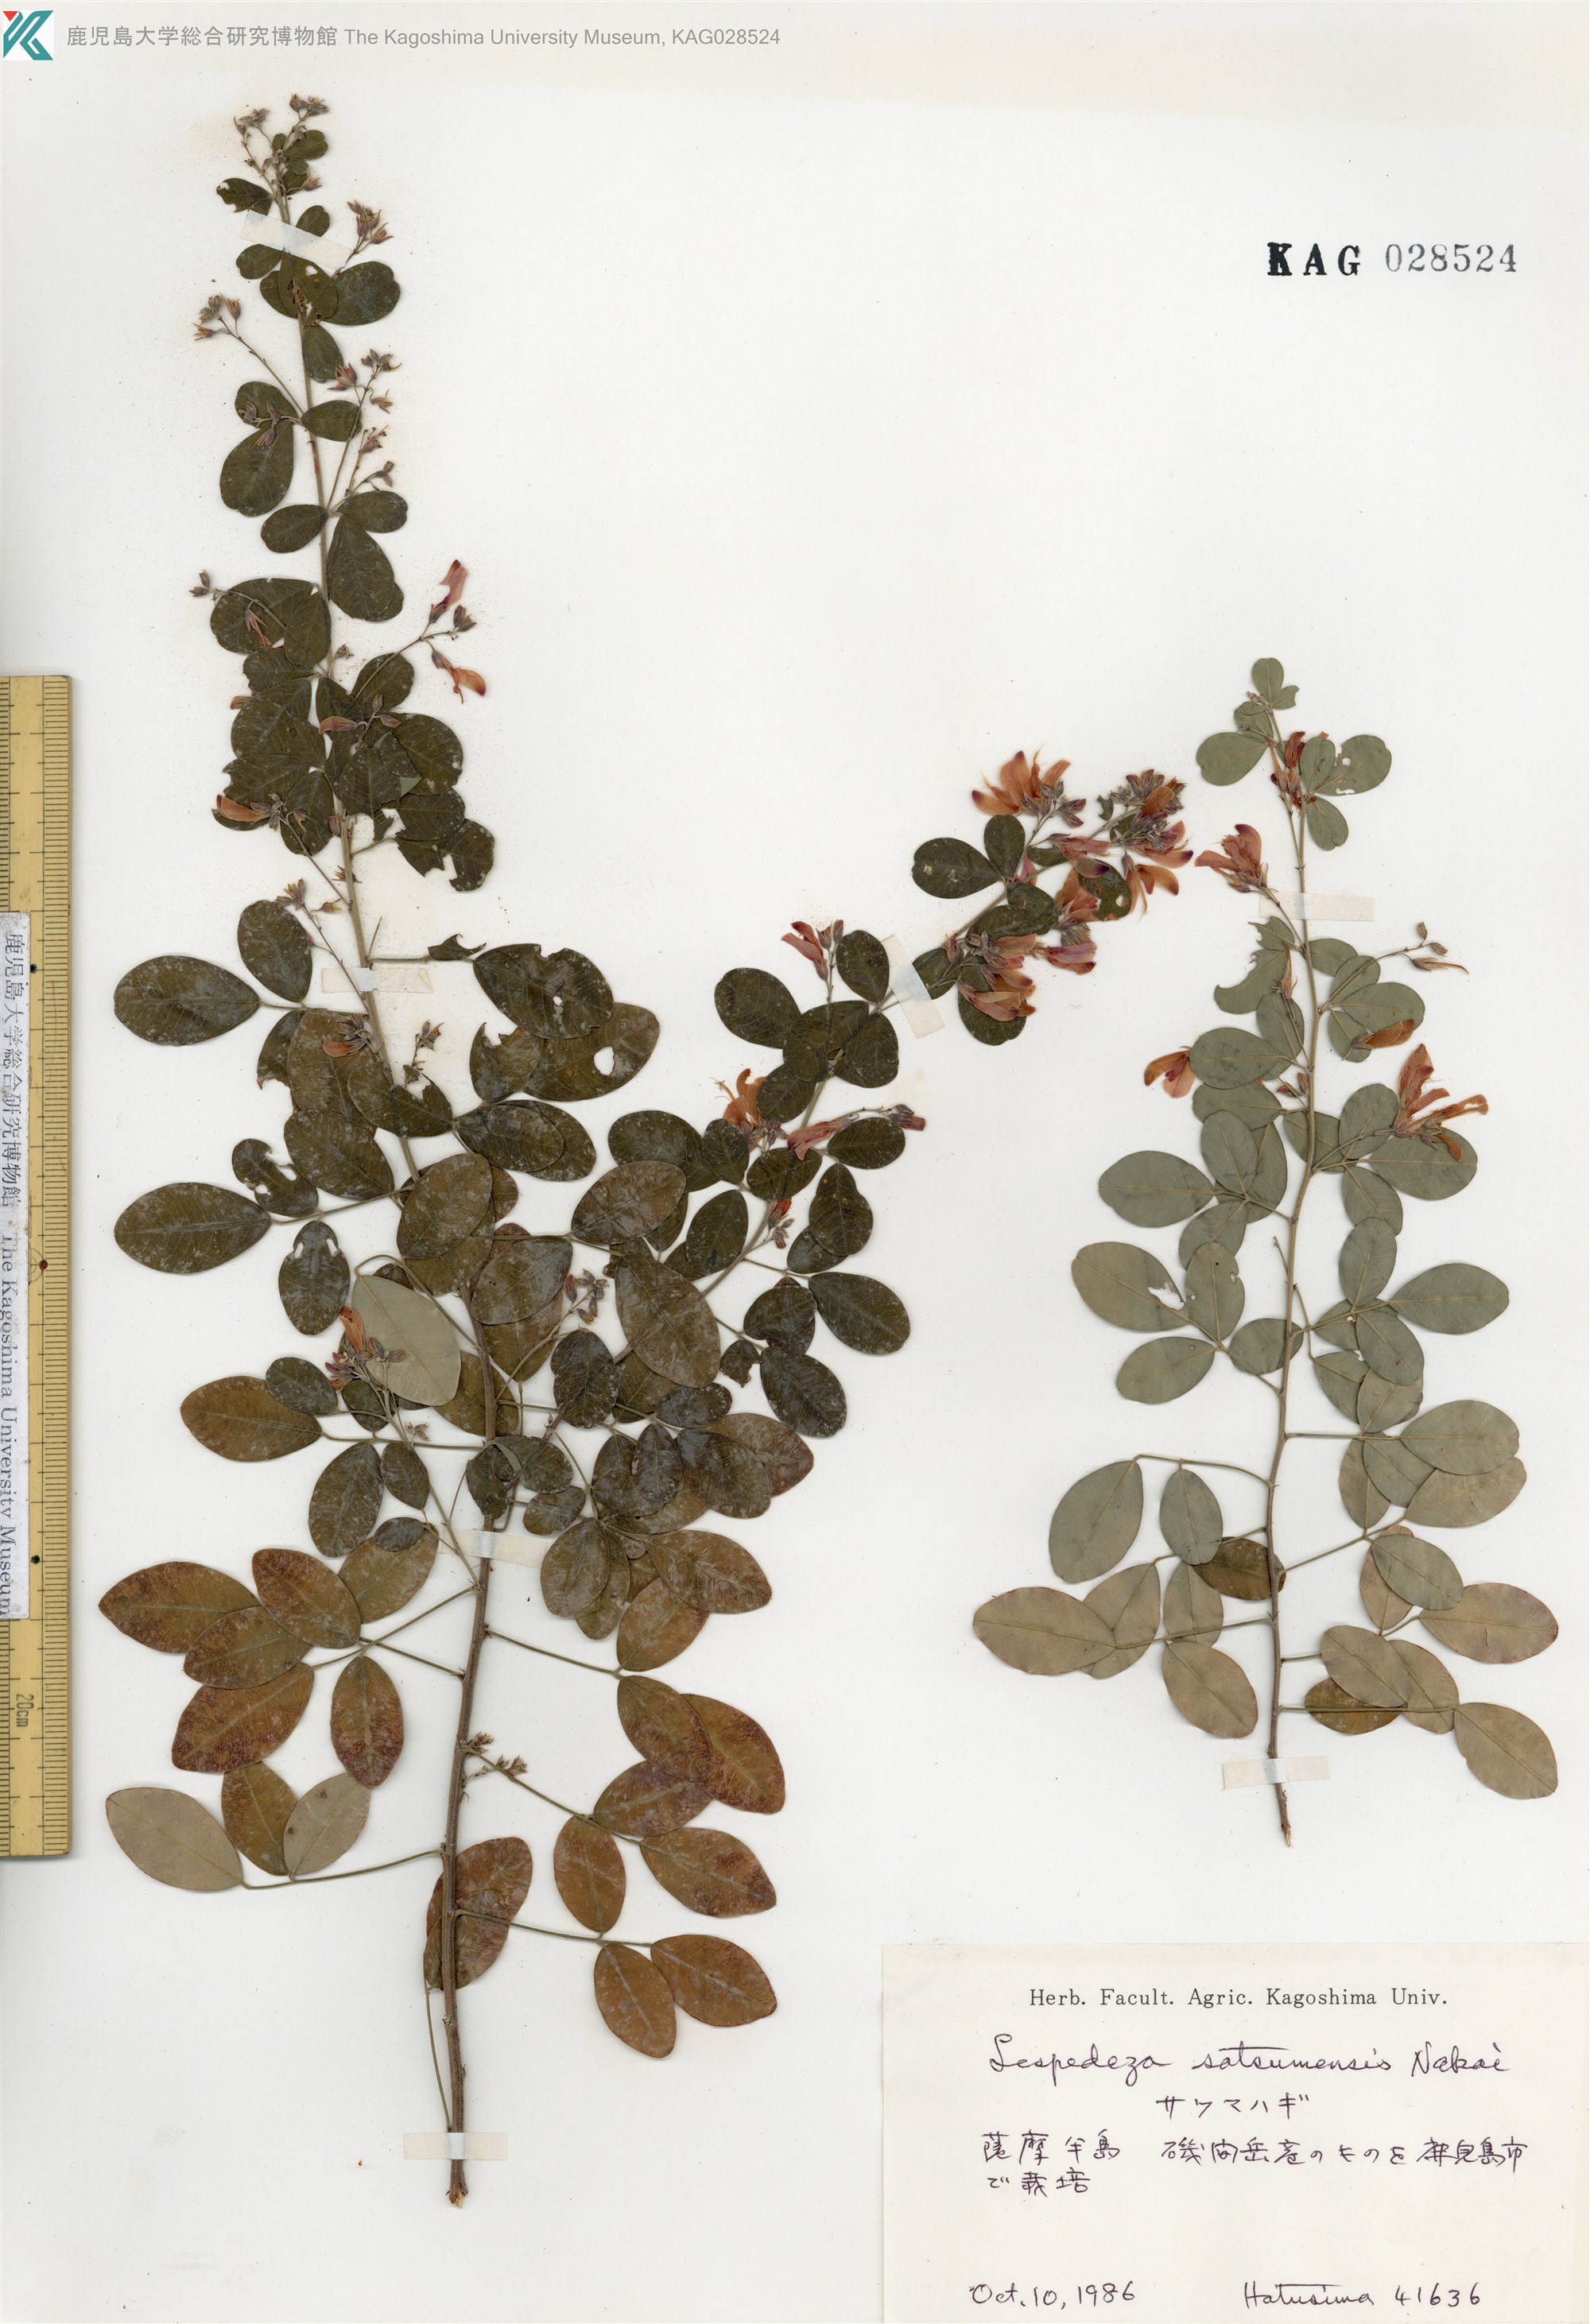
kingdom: Plantae
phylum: Tracheophyta
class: Magnoliopsida
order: Fabales
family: Fabaceae
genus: Lespedeza
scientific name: Lespedeza thunbergii
